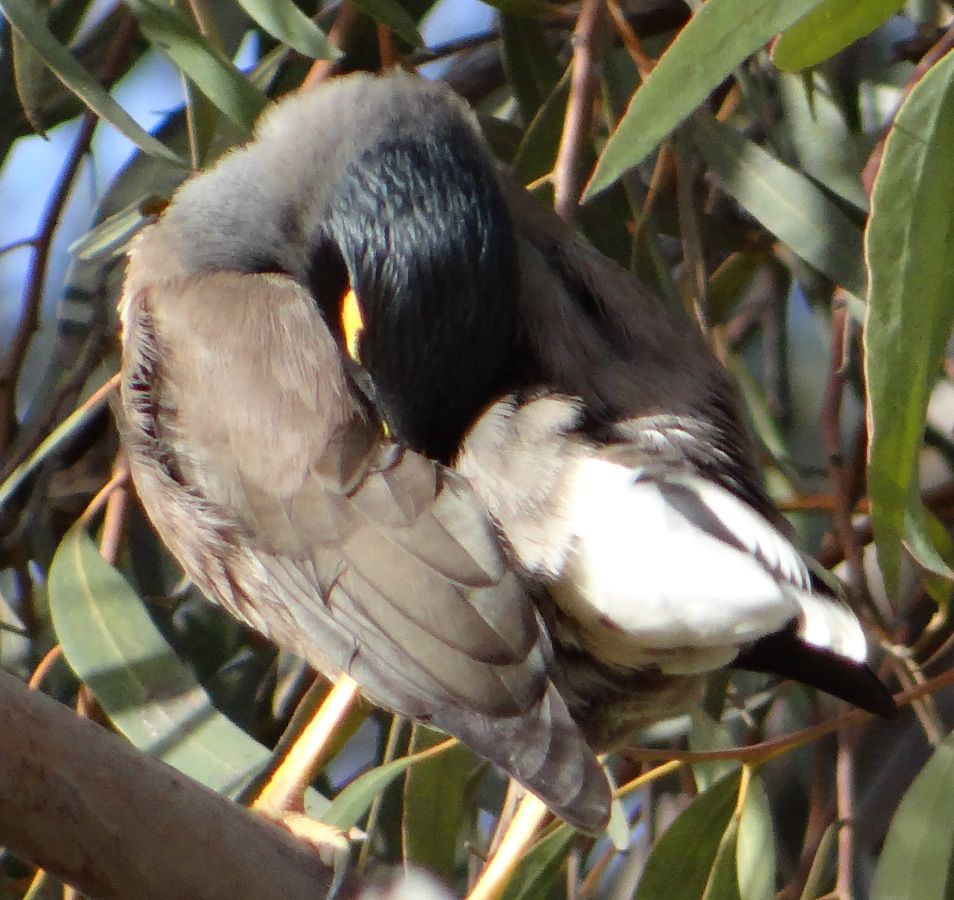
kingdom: Animalia
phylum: Chordata
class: Aves
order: Passeriformes
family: Sturnidae
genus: Acridotheres
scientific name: Acridotheres tristis
